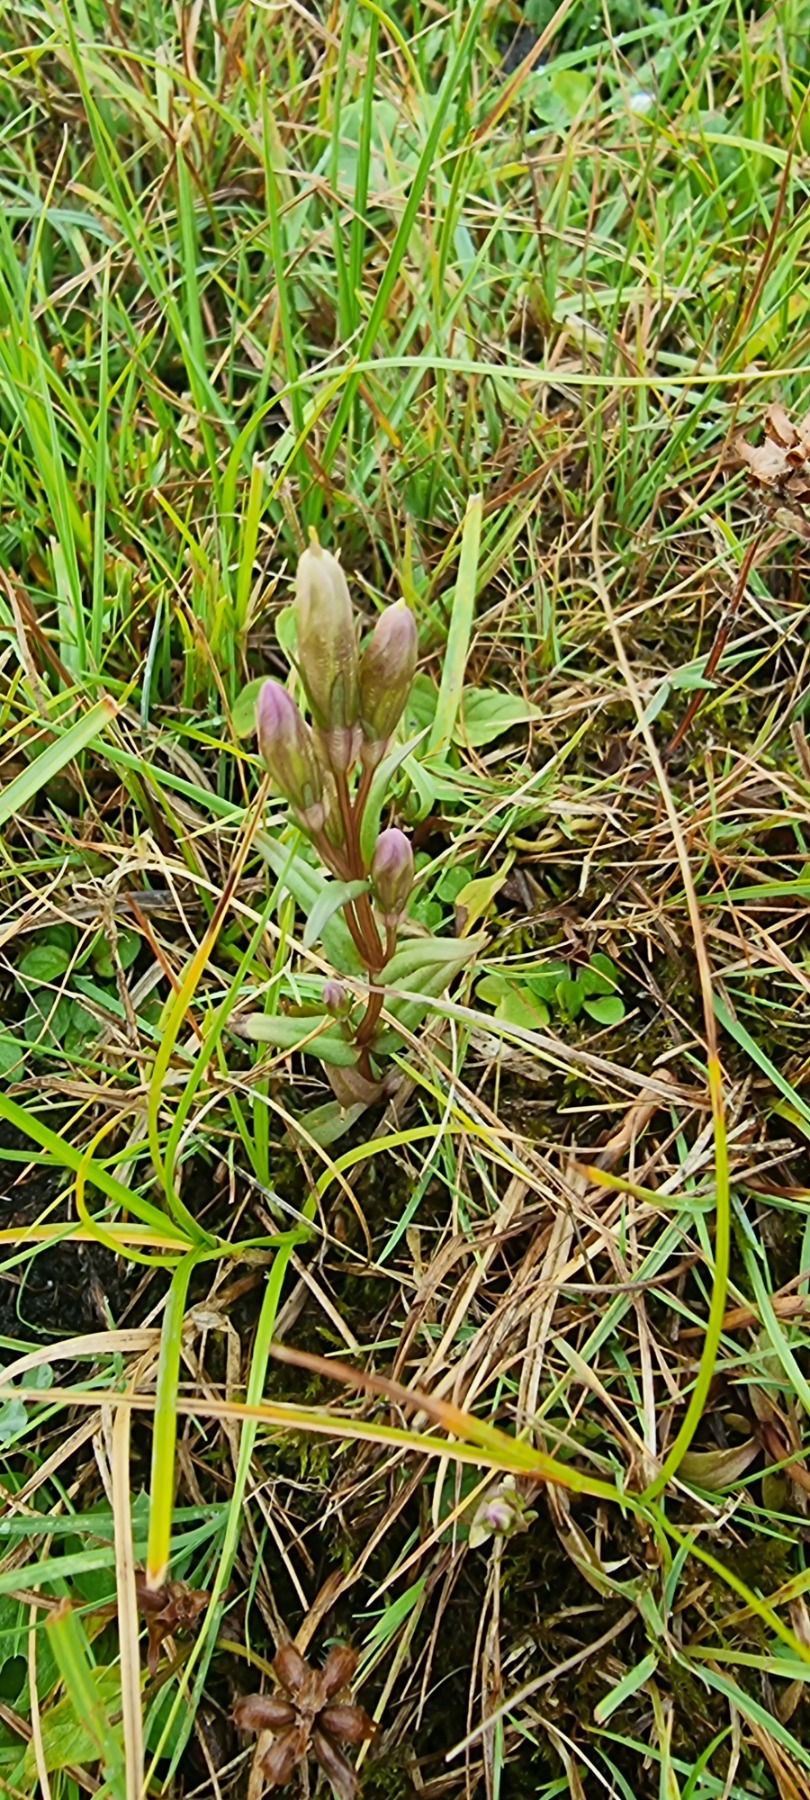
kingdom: Plantae
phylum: Tracheophyta
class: Magnoliopsida
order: Gentianales
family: Gentianaceae
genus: Gentianella
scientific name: Gentianella uliginosa
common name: Eng-ensian
